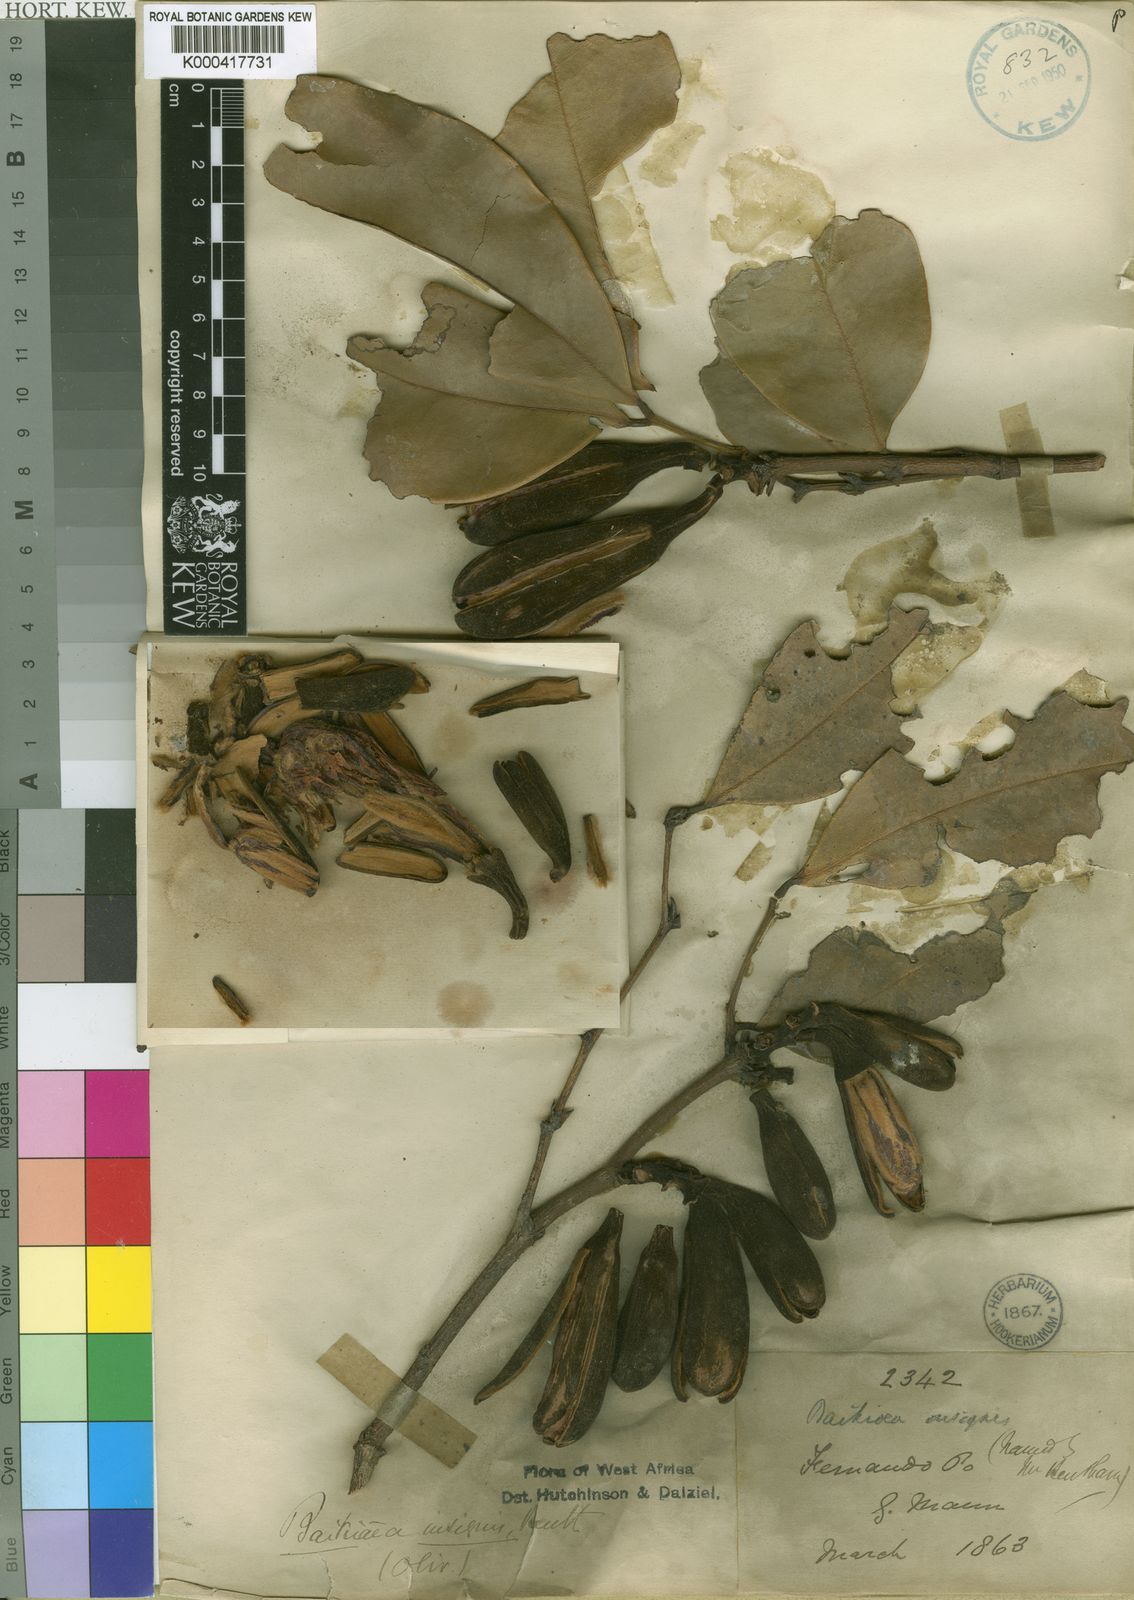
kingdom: Plantae
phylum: Tracheophyta
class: Magnoliopsida
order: Fabales
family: Fabaceae
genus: Baikiaea
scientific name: Baikiaea insignis
